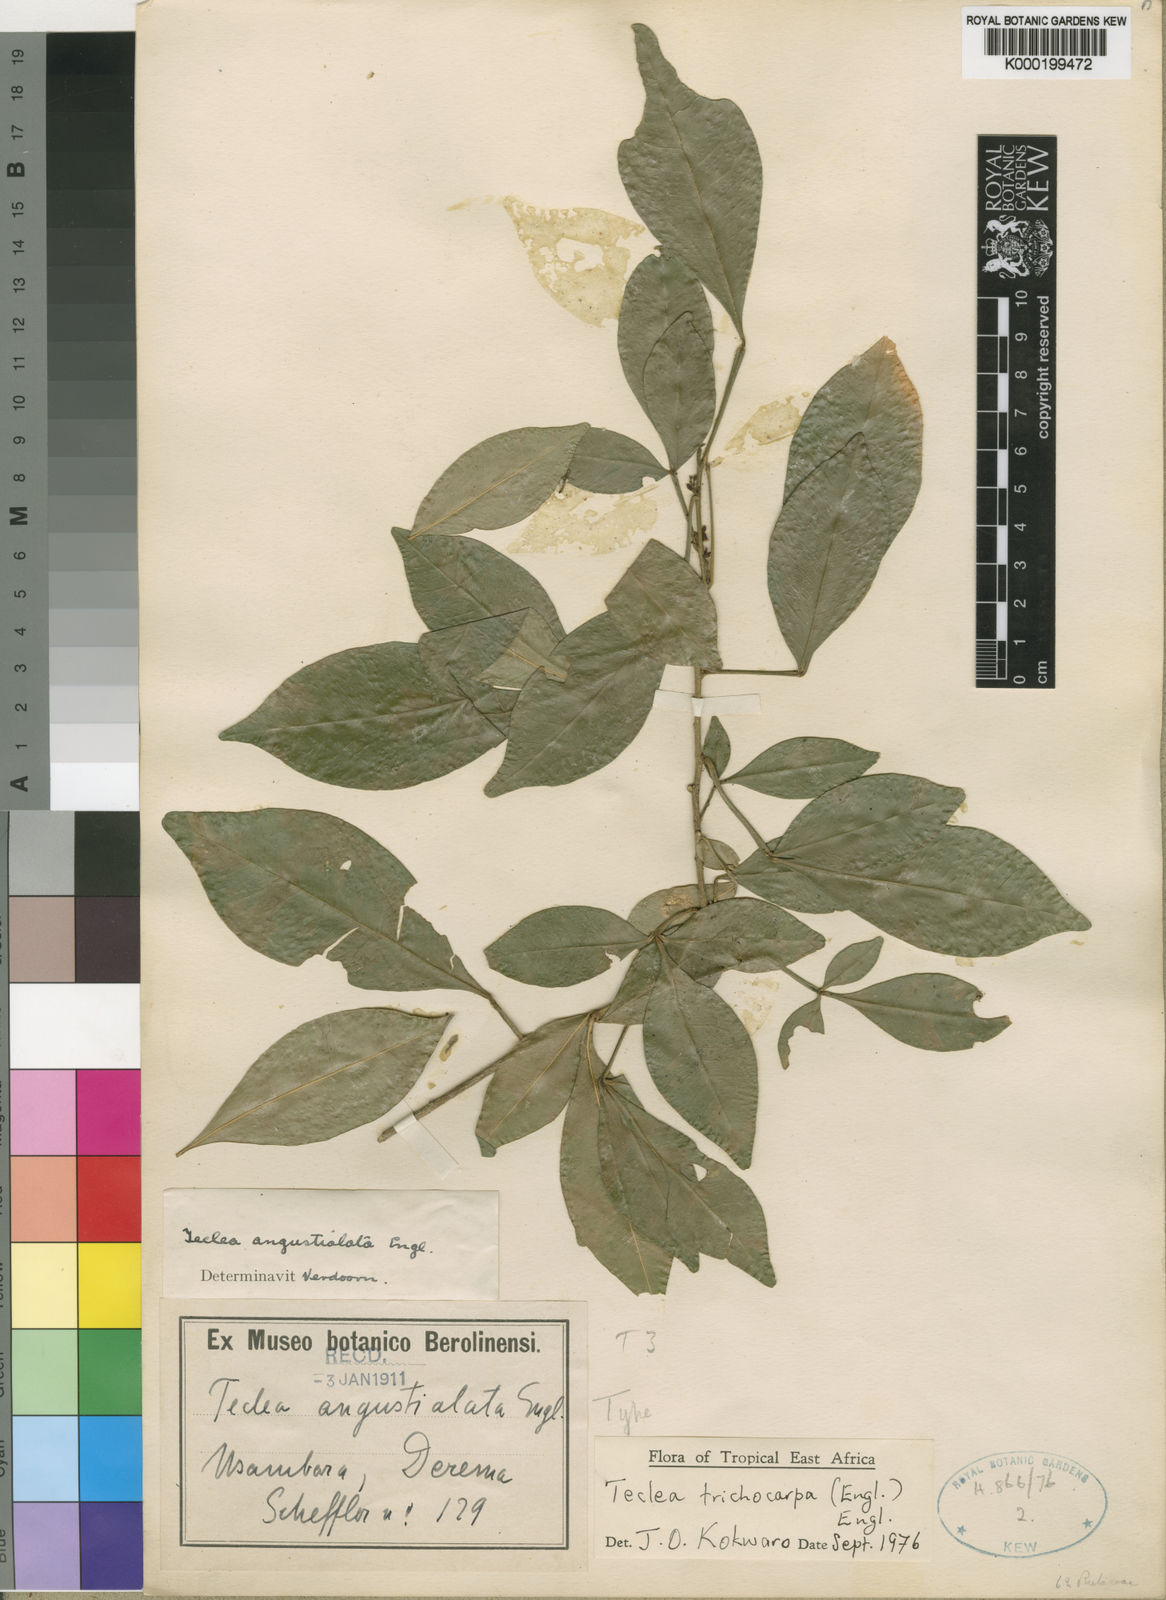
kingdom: Plantae
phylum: Tracheophyta
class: Magnoliopsida
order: Sapindales
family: Rutaceae
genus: Vepris
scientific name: Vepris trichocarpa
